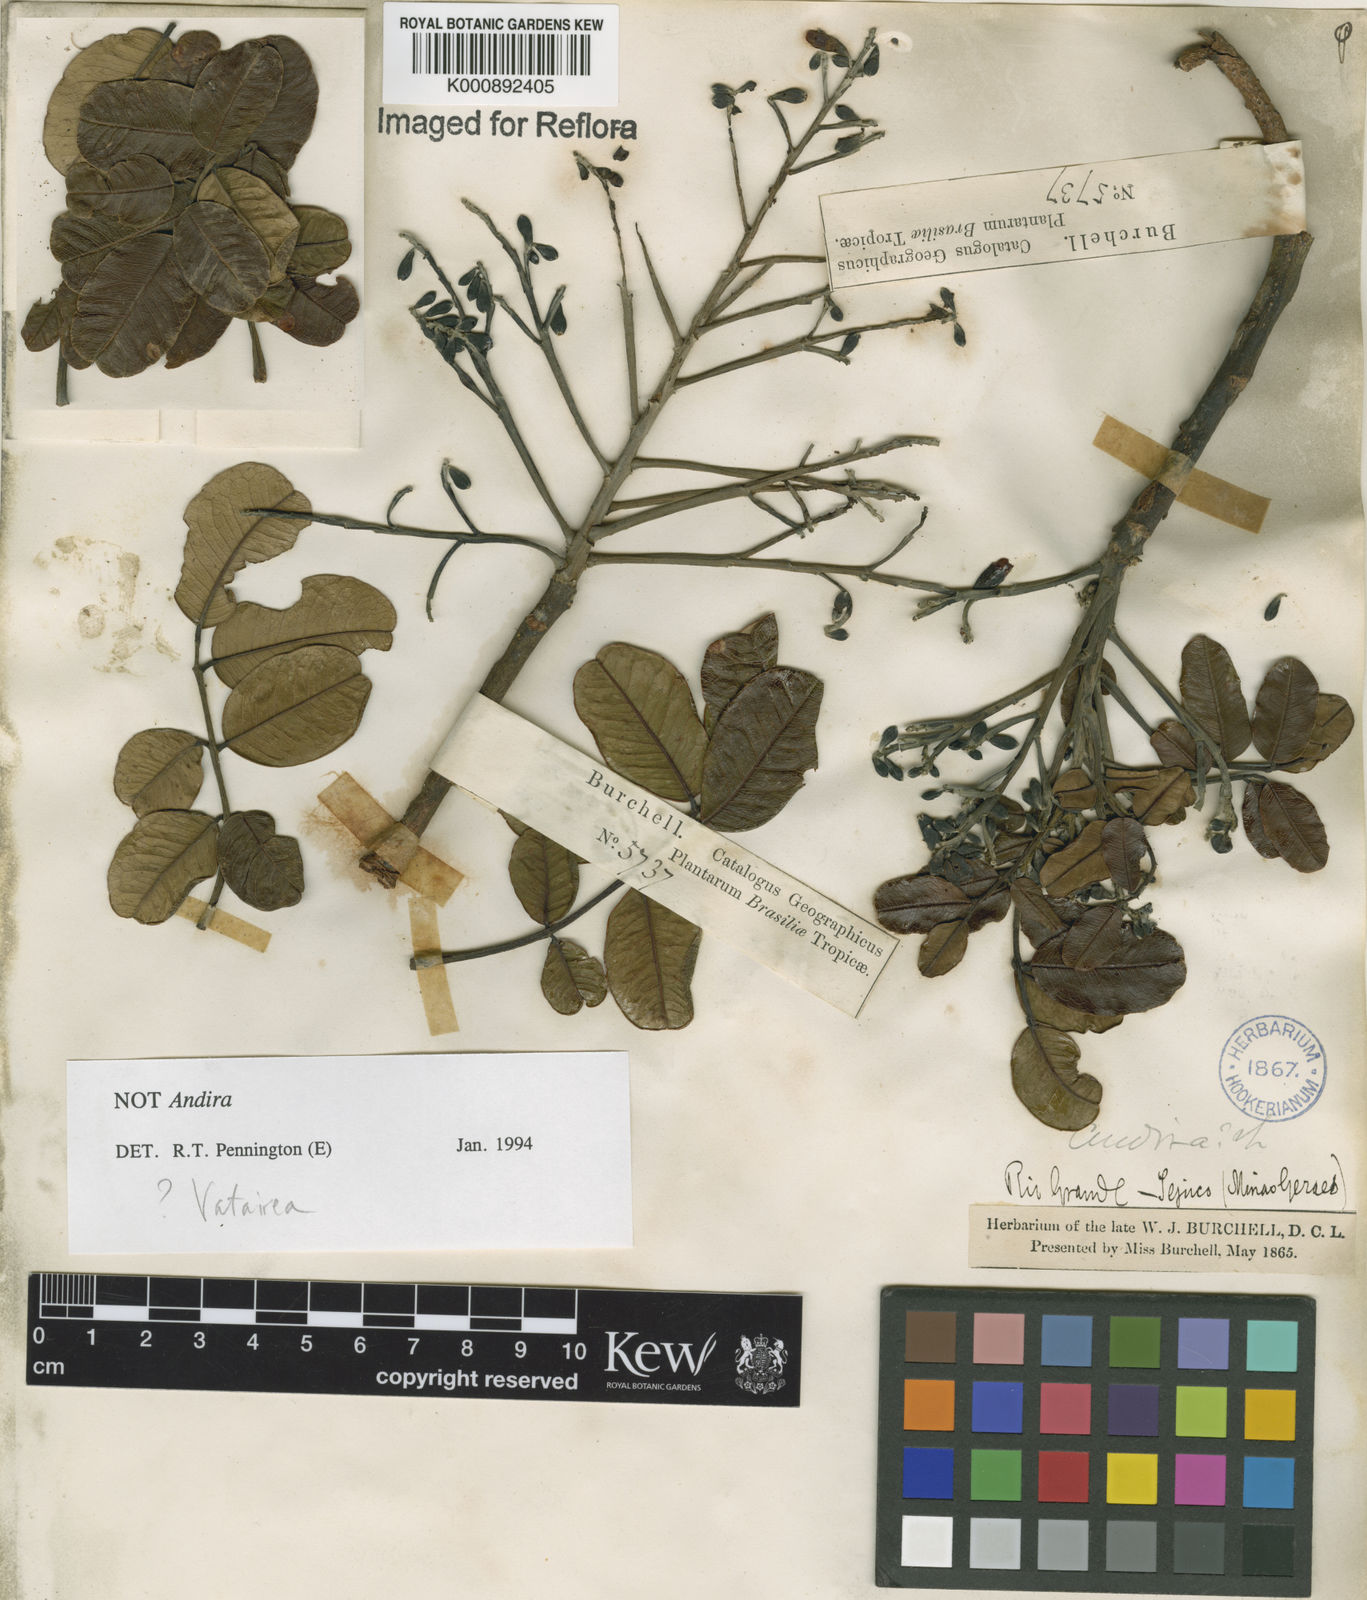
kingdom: Plantae
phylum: Tracheophyta
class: Magnoliopsida
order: Fabales
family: Fabaceae
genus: Vatairea
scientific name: Vatairea
